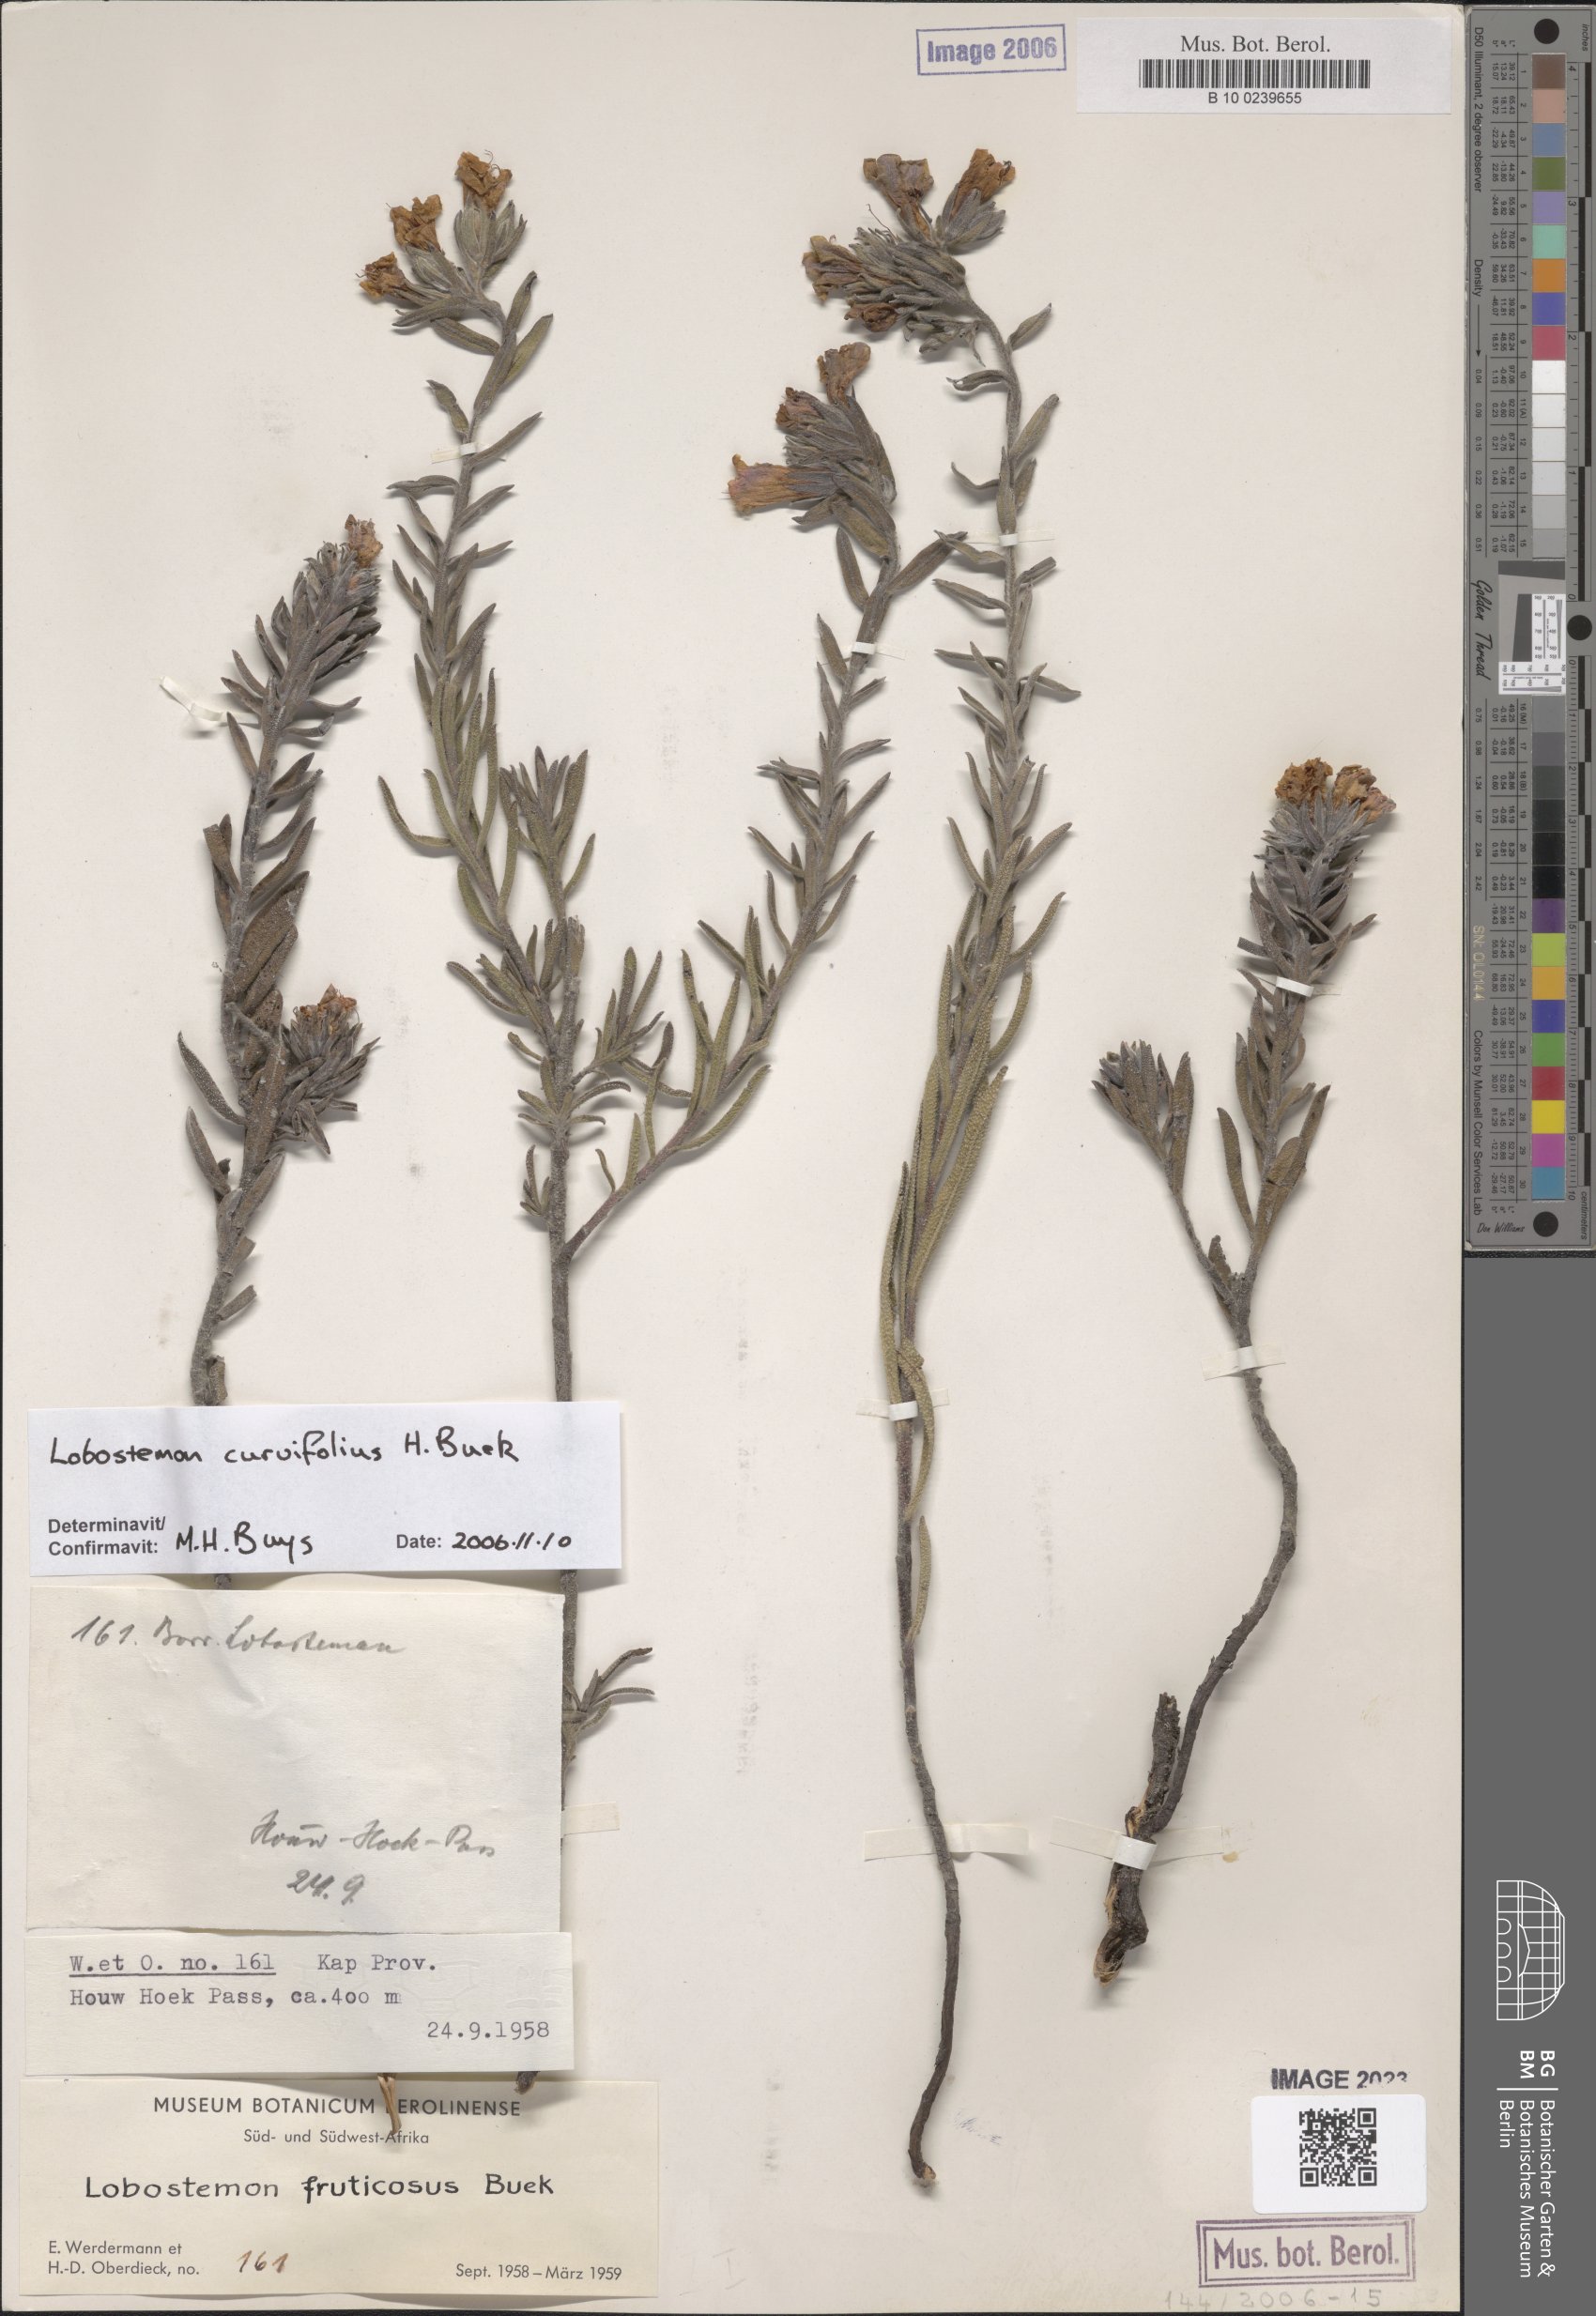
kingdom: Plantae
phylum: Tracheophyta
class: Magnoliopsida
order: Boraginales
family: Boraginaceae
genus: Lobostemon
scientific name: Lobostemon fruticosus
